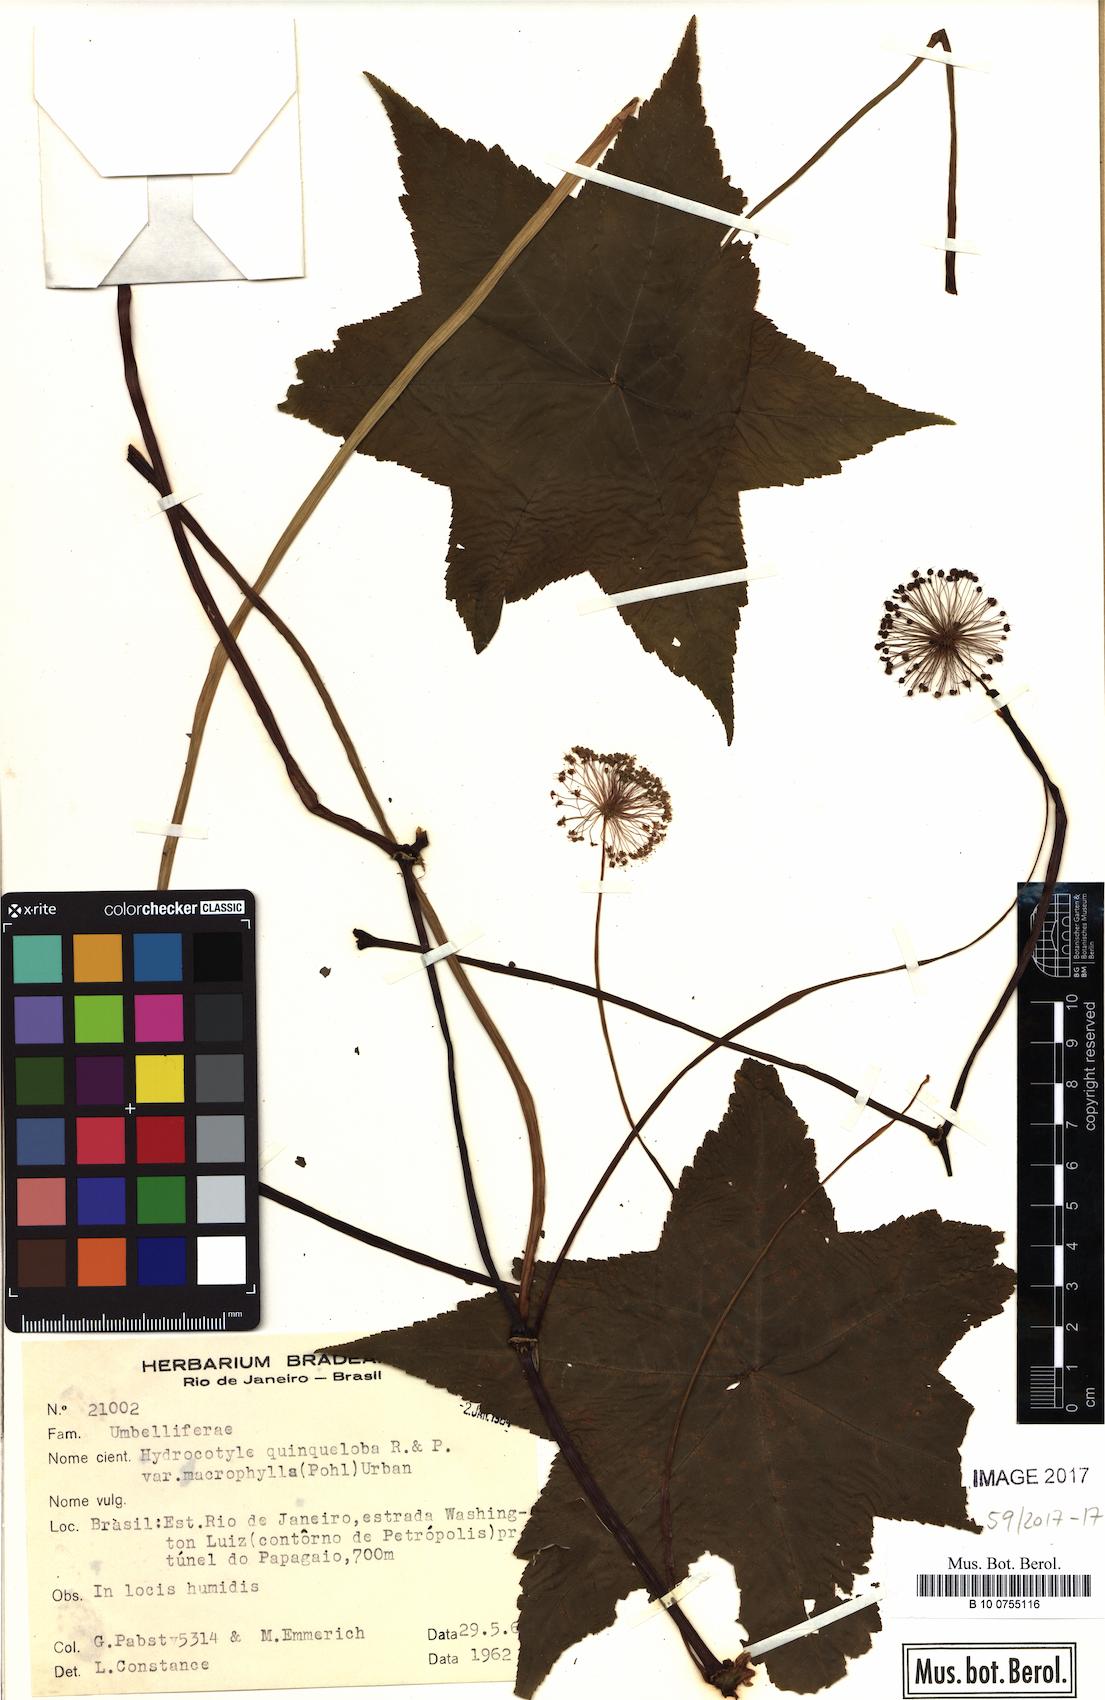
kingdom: Plantae
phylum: Tracheophyta
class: Magnoliopsida
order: Apiales
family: Araliaceae
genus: Hydrocotyle
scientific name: Hydrocotyle quinqueloba
